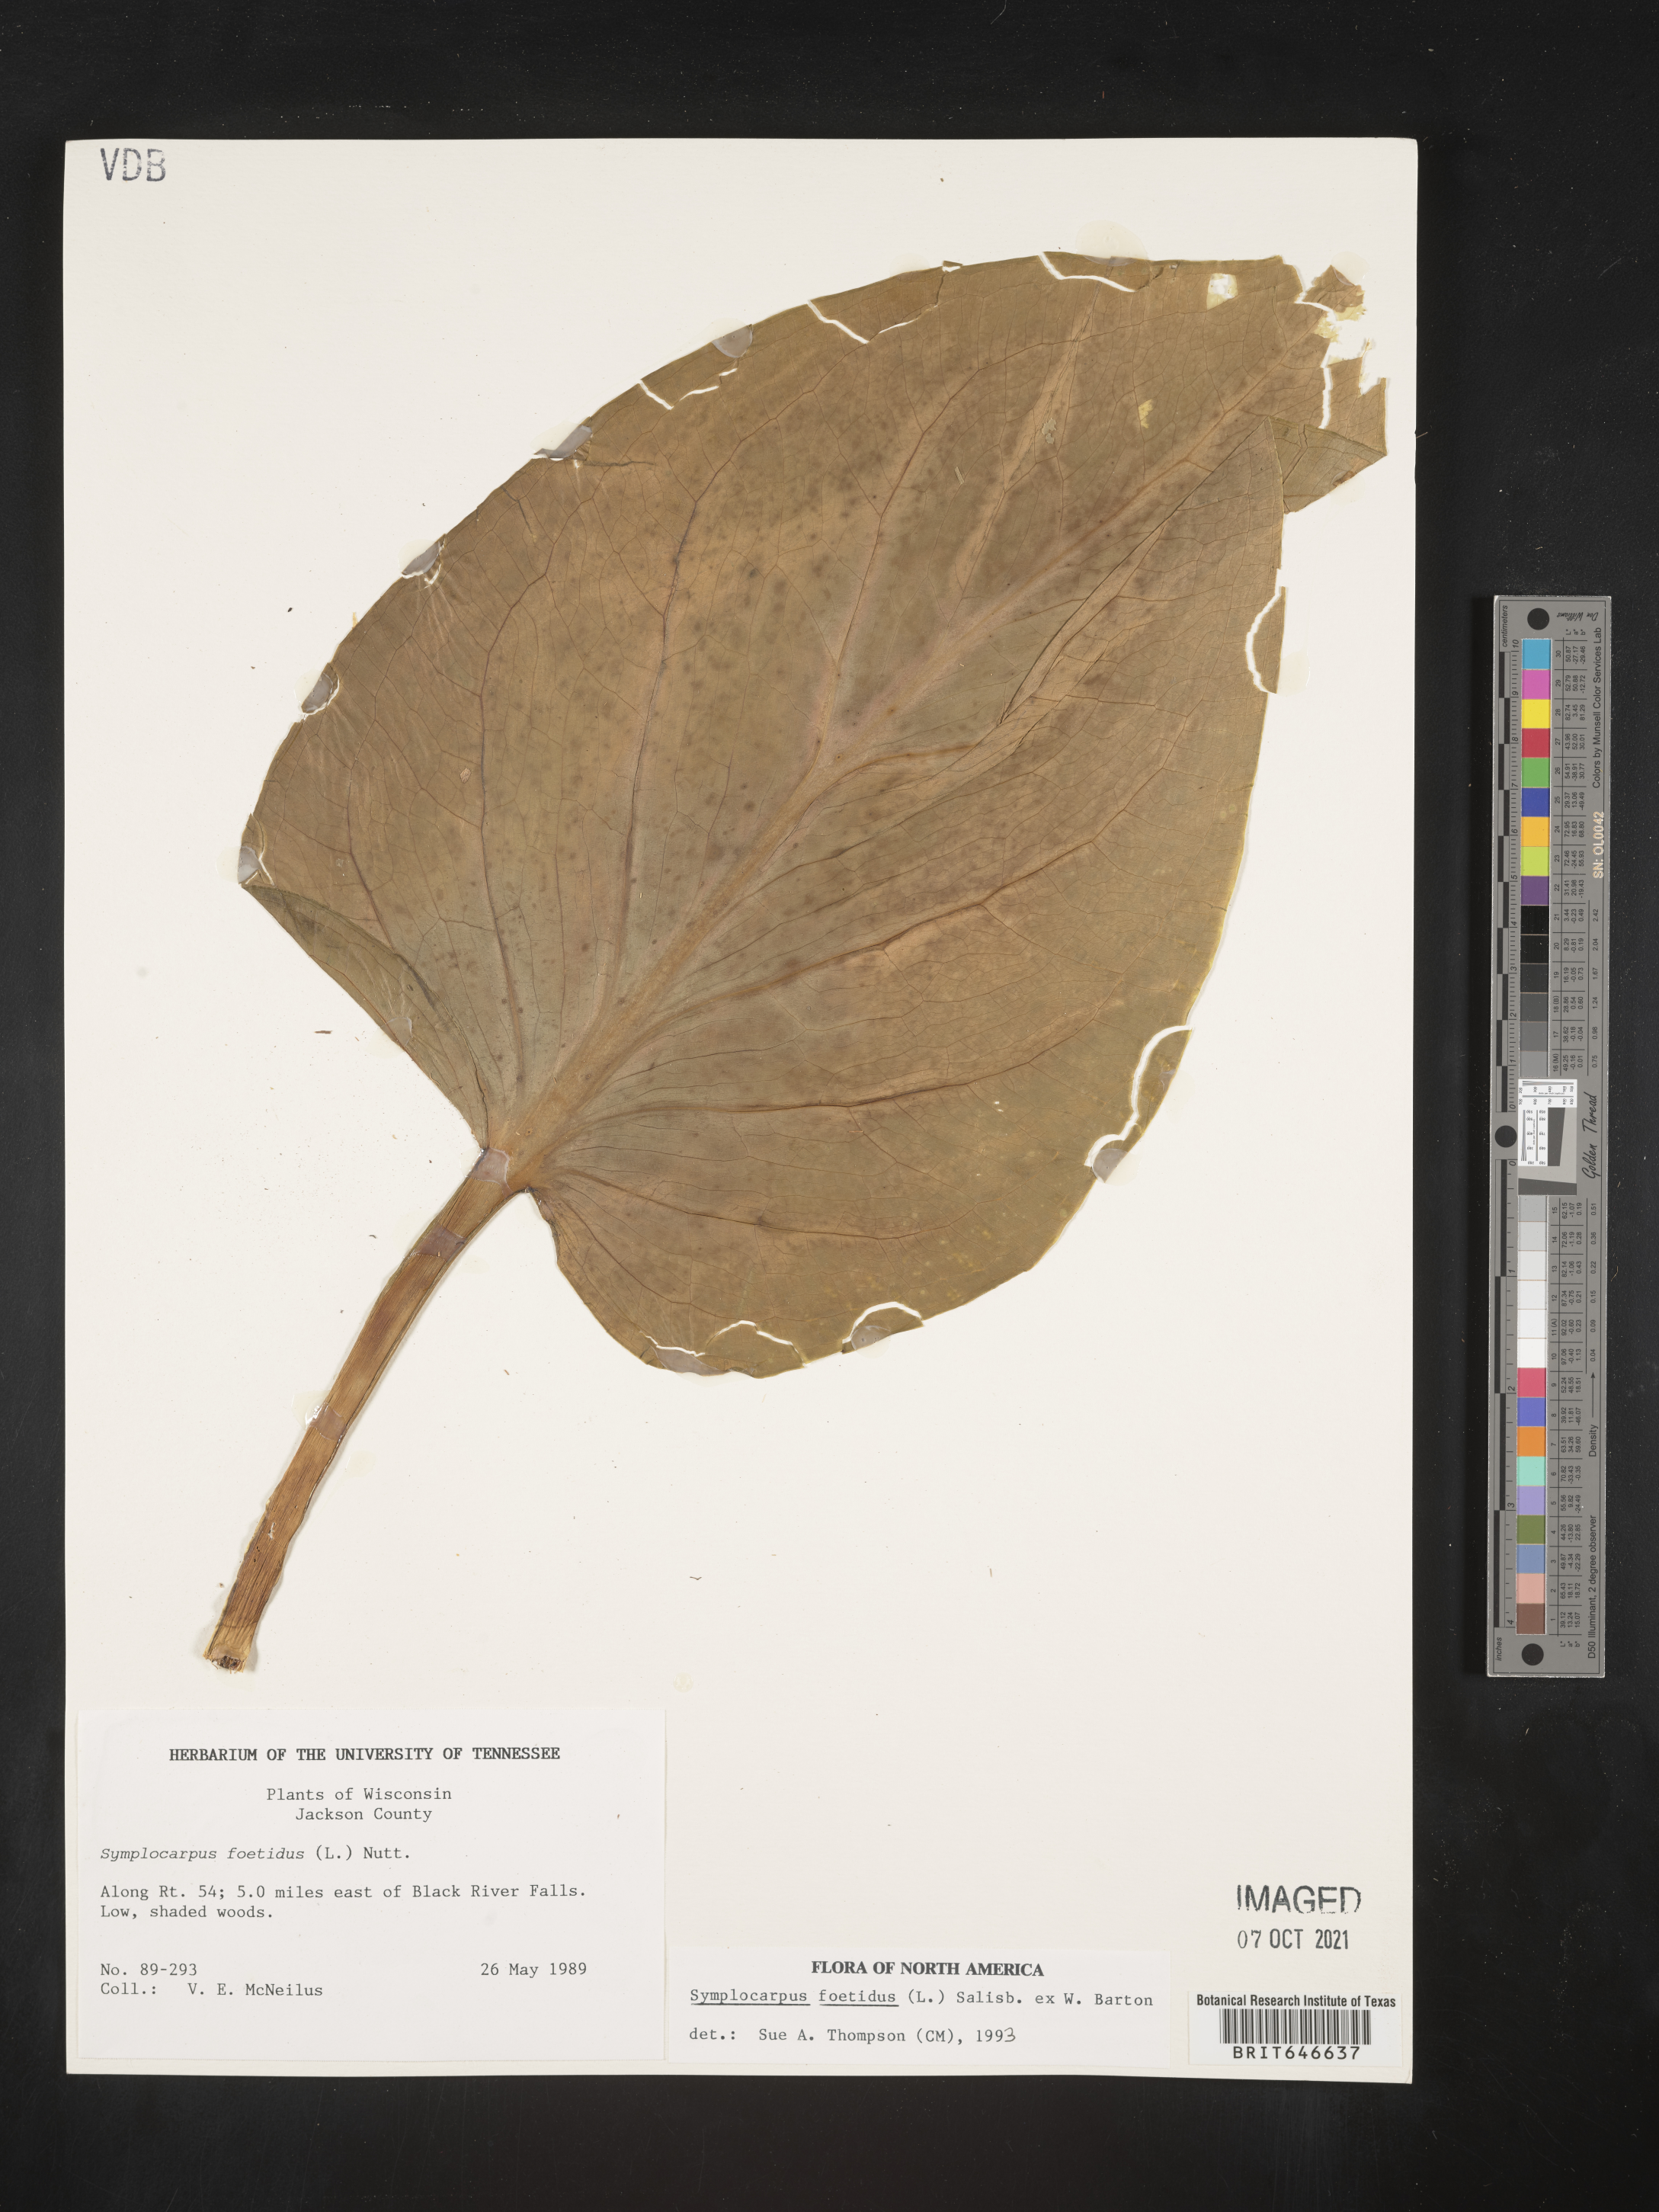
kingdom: Plantae
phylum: Tracheophyta
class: Liliopsida
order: Alismatales
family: Araceae
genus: Symplocarpus
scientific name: Symplocarpus foetidus
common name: Eastern skunk cabbage
